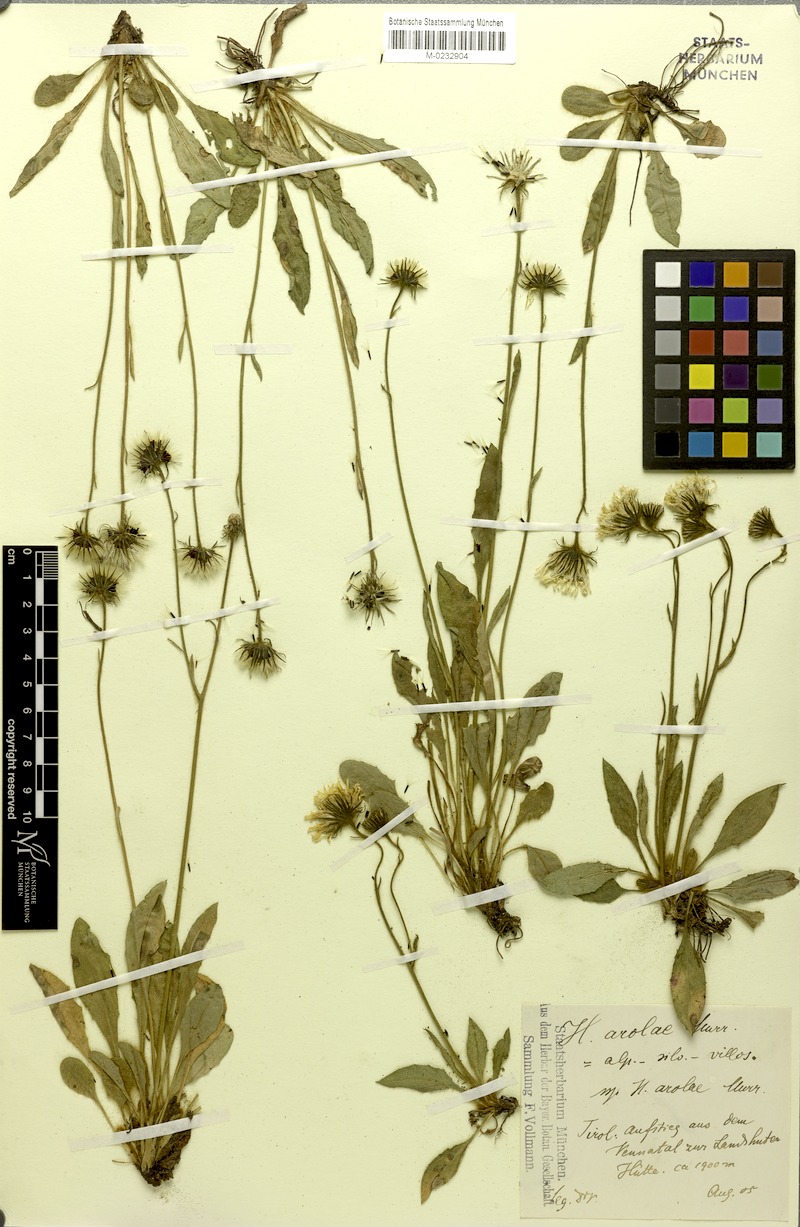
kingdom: Plantae
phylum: Tracheophyta
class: Magnoliopsida
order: Asterales
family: Asteraceae
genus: Hieracium
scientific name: Hieracium arolae
